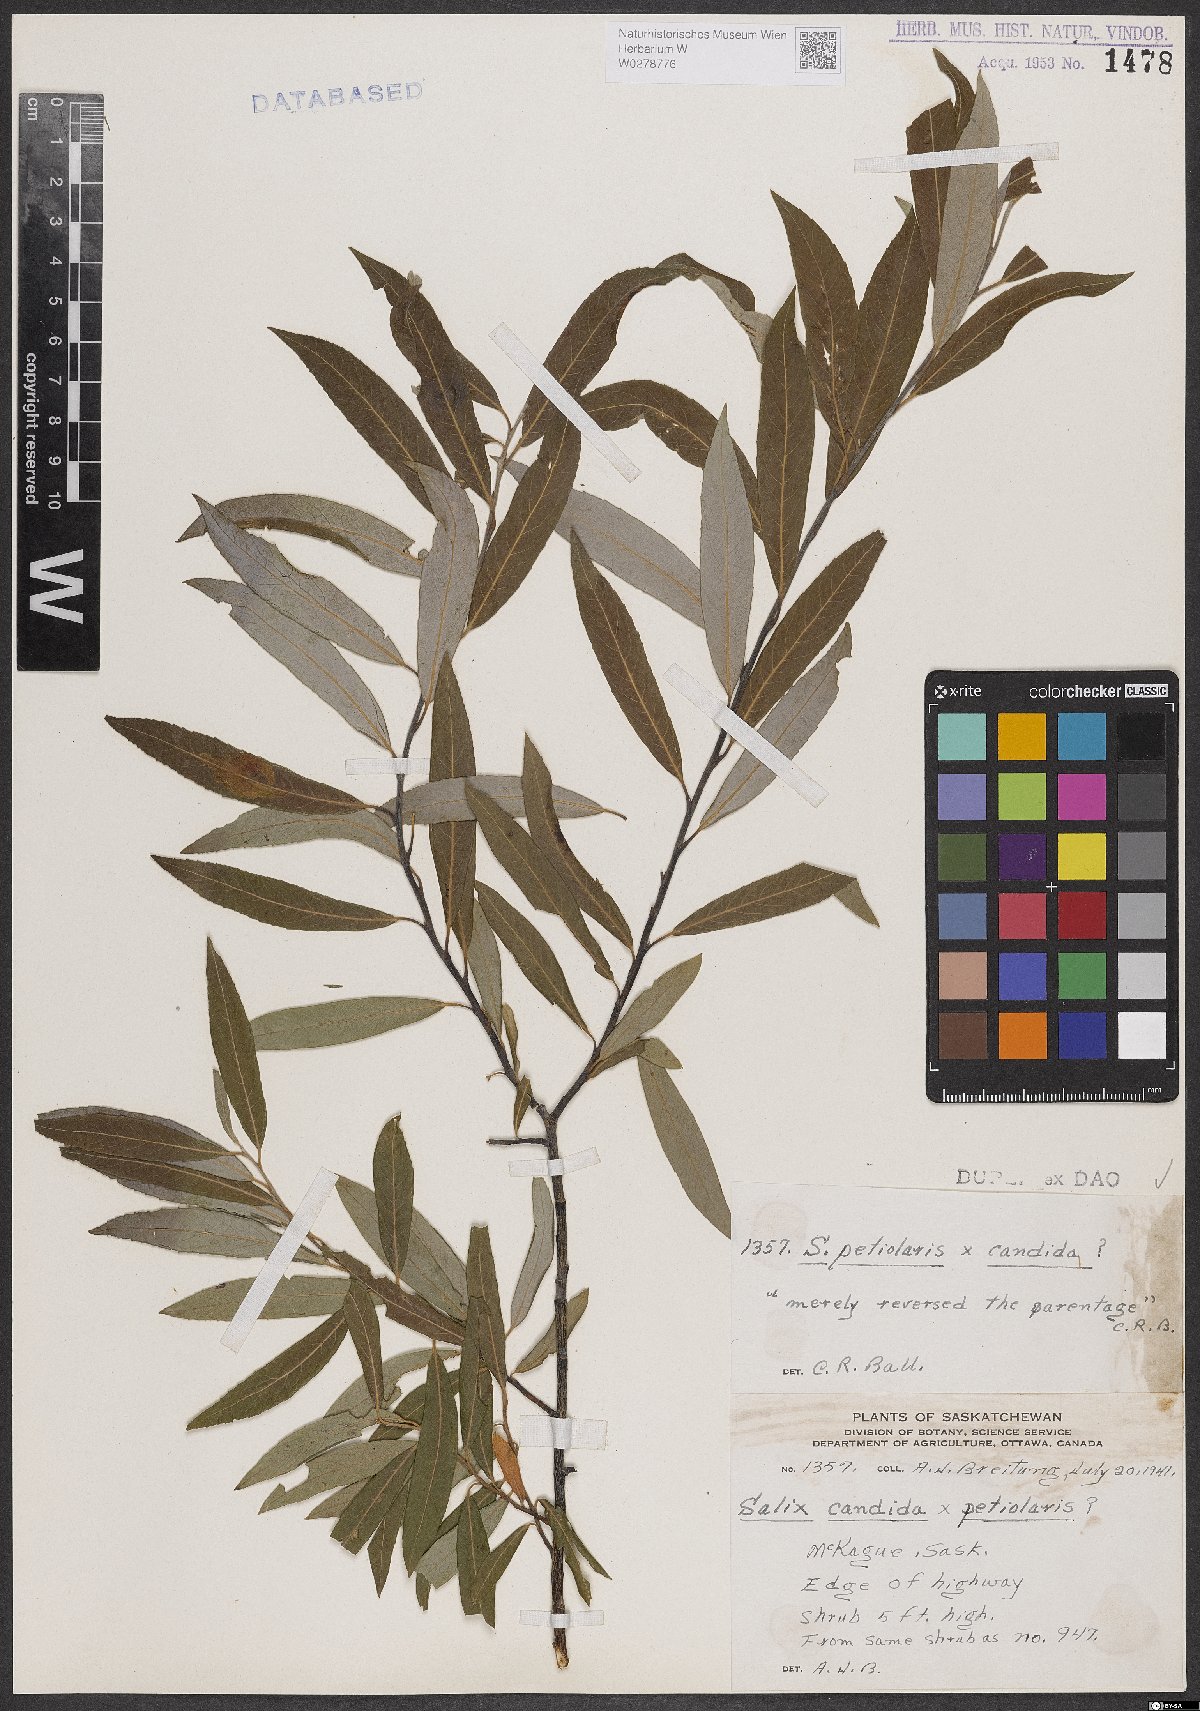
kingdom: Plantae
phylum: Tracheophyta
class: Magnoliopsida
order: Malpighiales
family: Salicaceae
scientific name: Salicaceae
